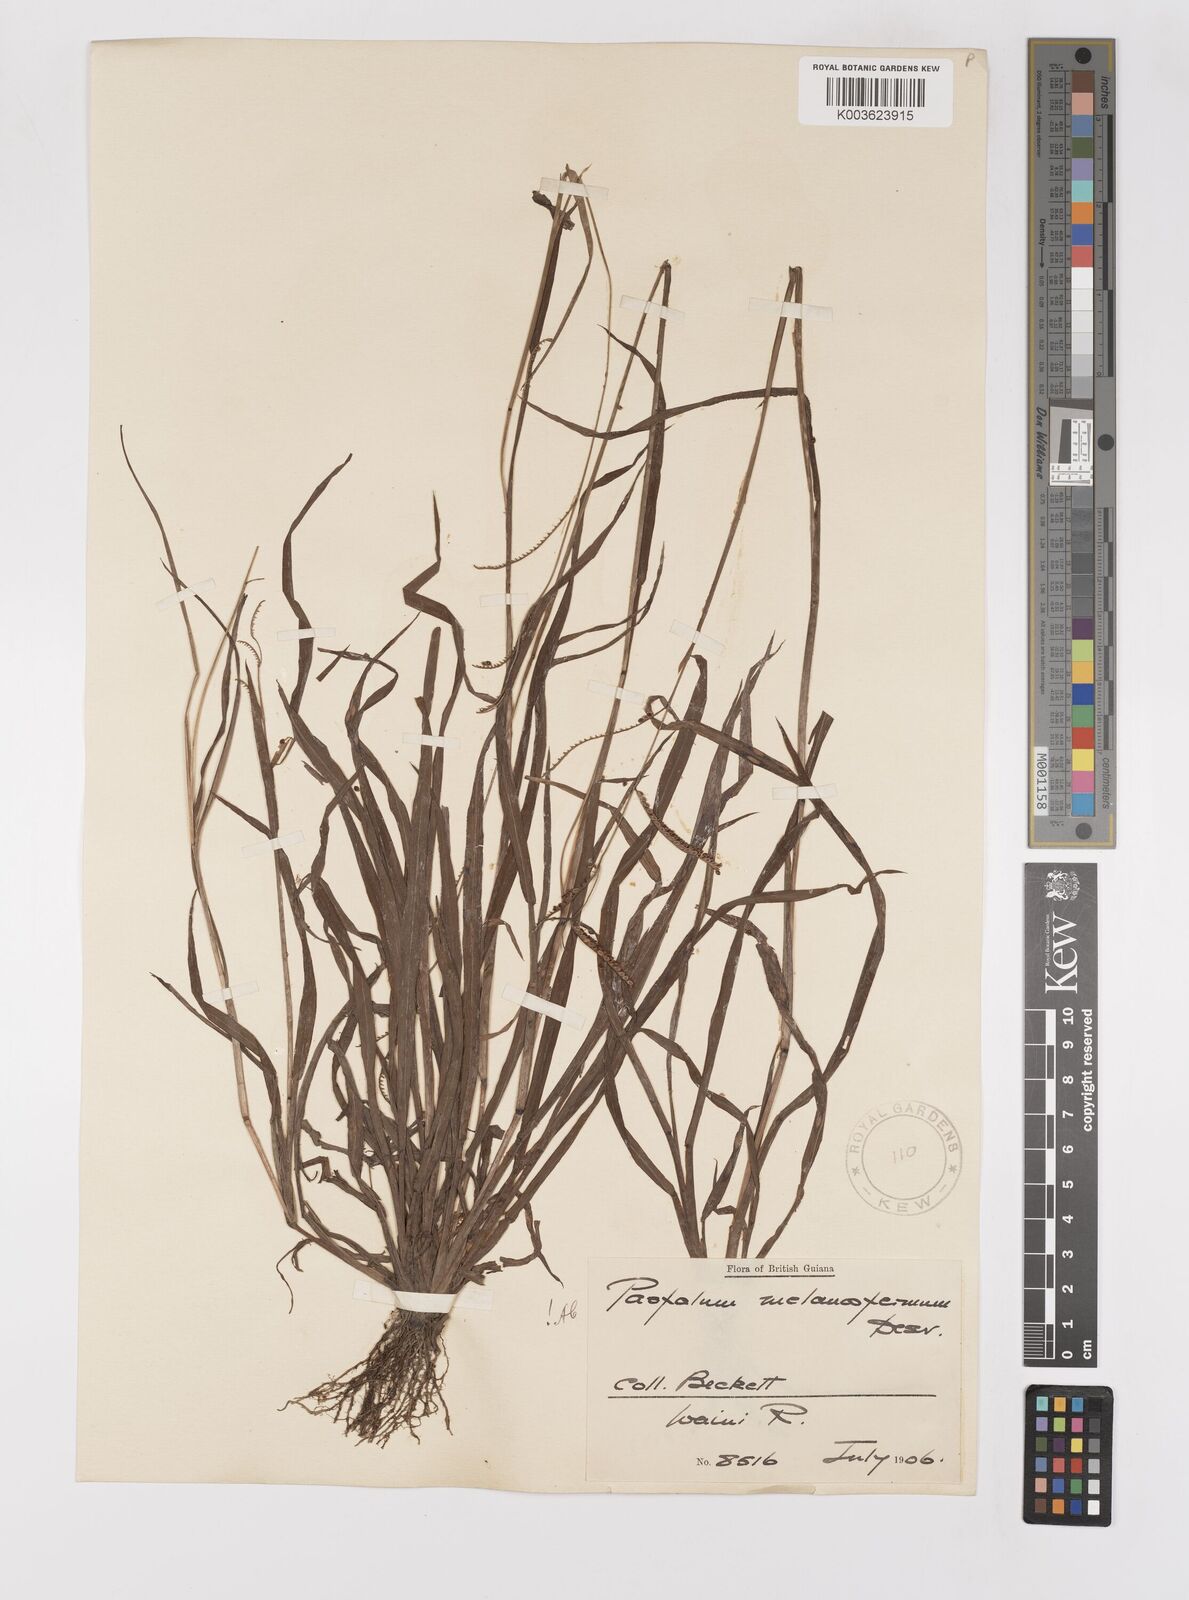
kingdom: Plantae
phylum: Tracheophyta
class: Liliopsida
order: Poales
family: Poaceae
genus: Paspalum
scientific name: Paspalum melanospermum
